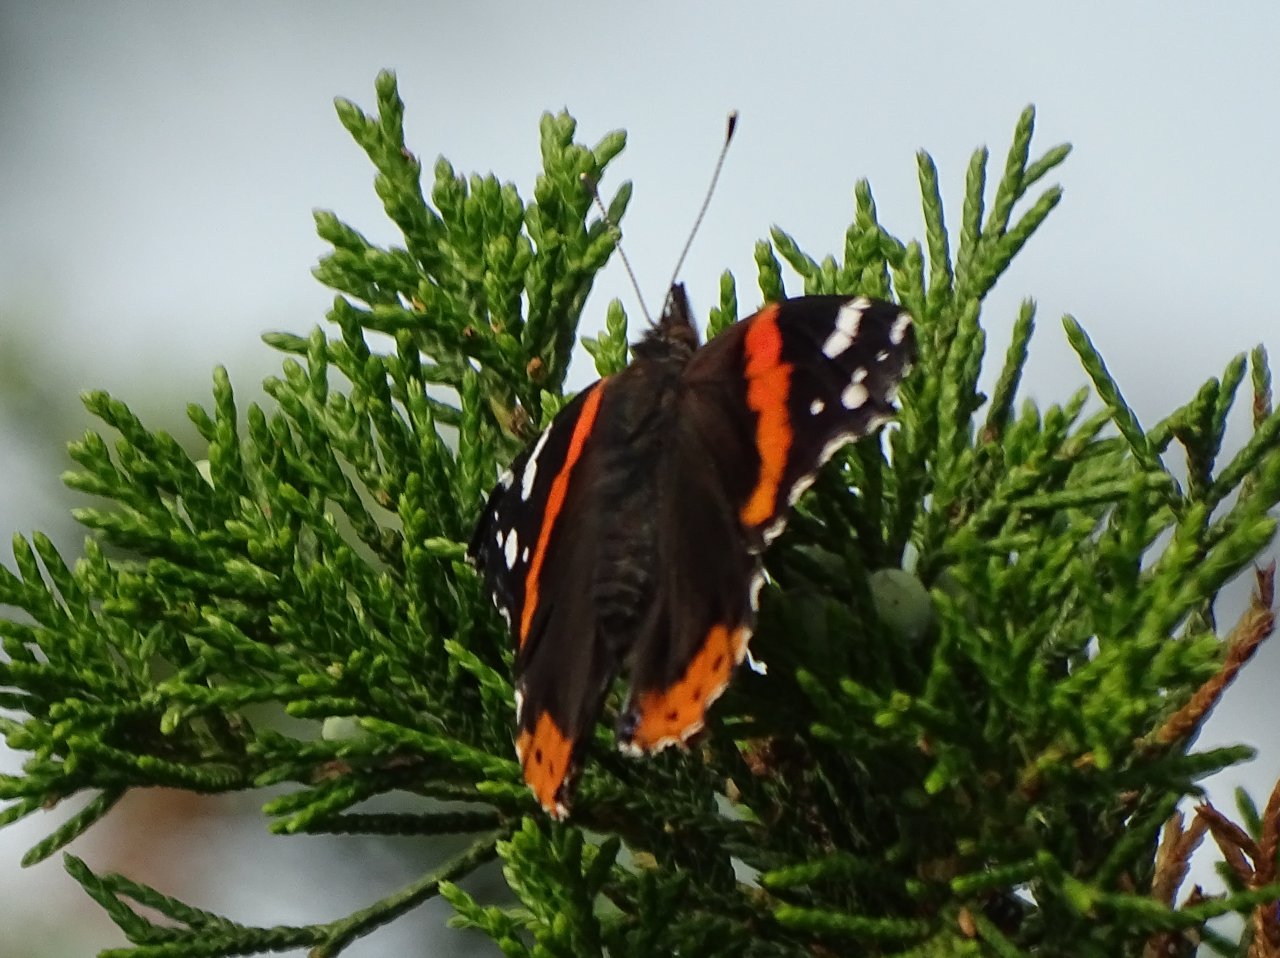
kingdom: Animalia
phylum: Arthropoda
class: Insecta
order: Lepidoptera
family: Nymphalidae
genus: Vanessa
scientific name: Vanessa atalanta
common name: Red Admiral
